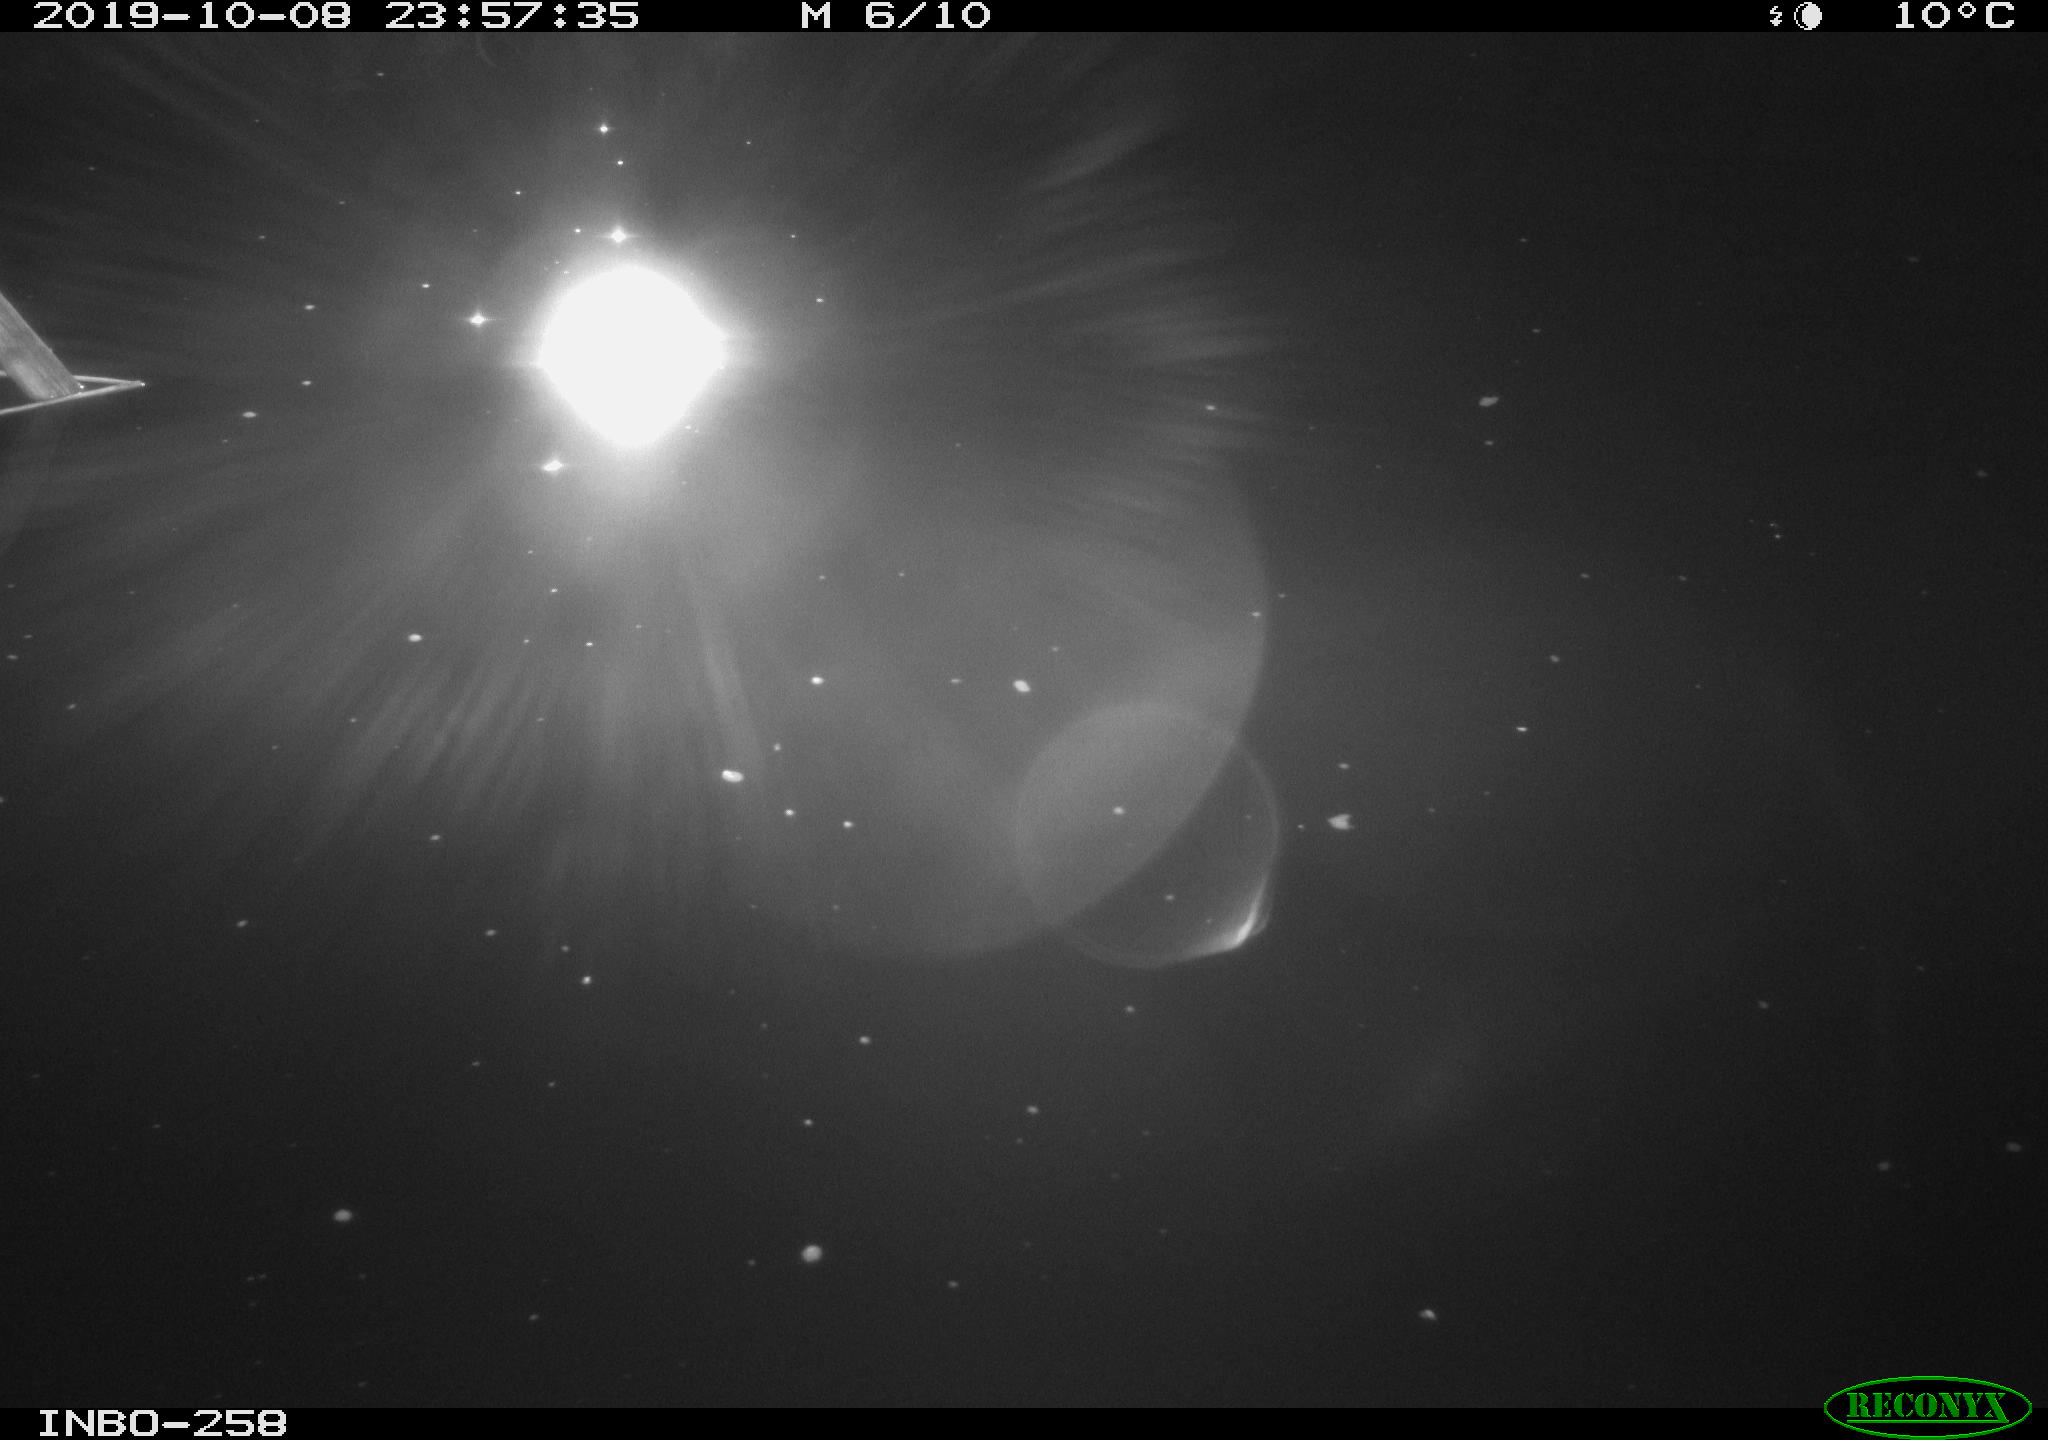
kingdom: Animalia
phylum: Chordata
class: Aves
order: Anseriformes
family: Anatidae
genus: Anas
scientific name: Anas platyrhynchos
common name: Mallard
